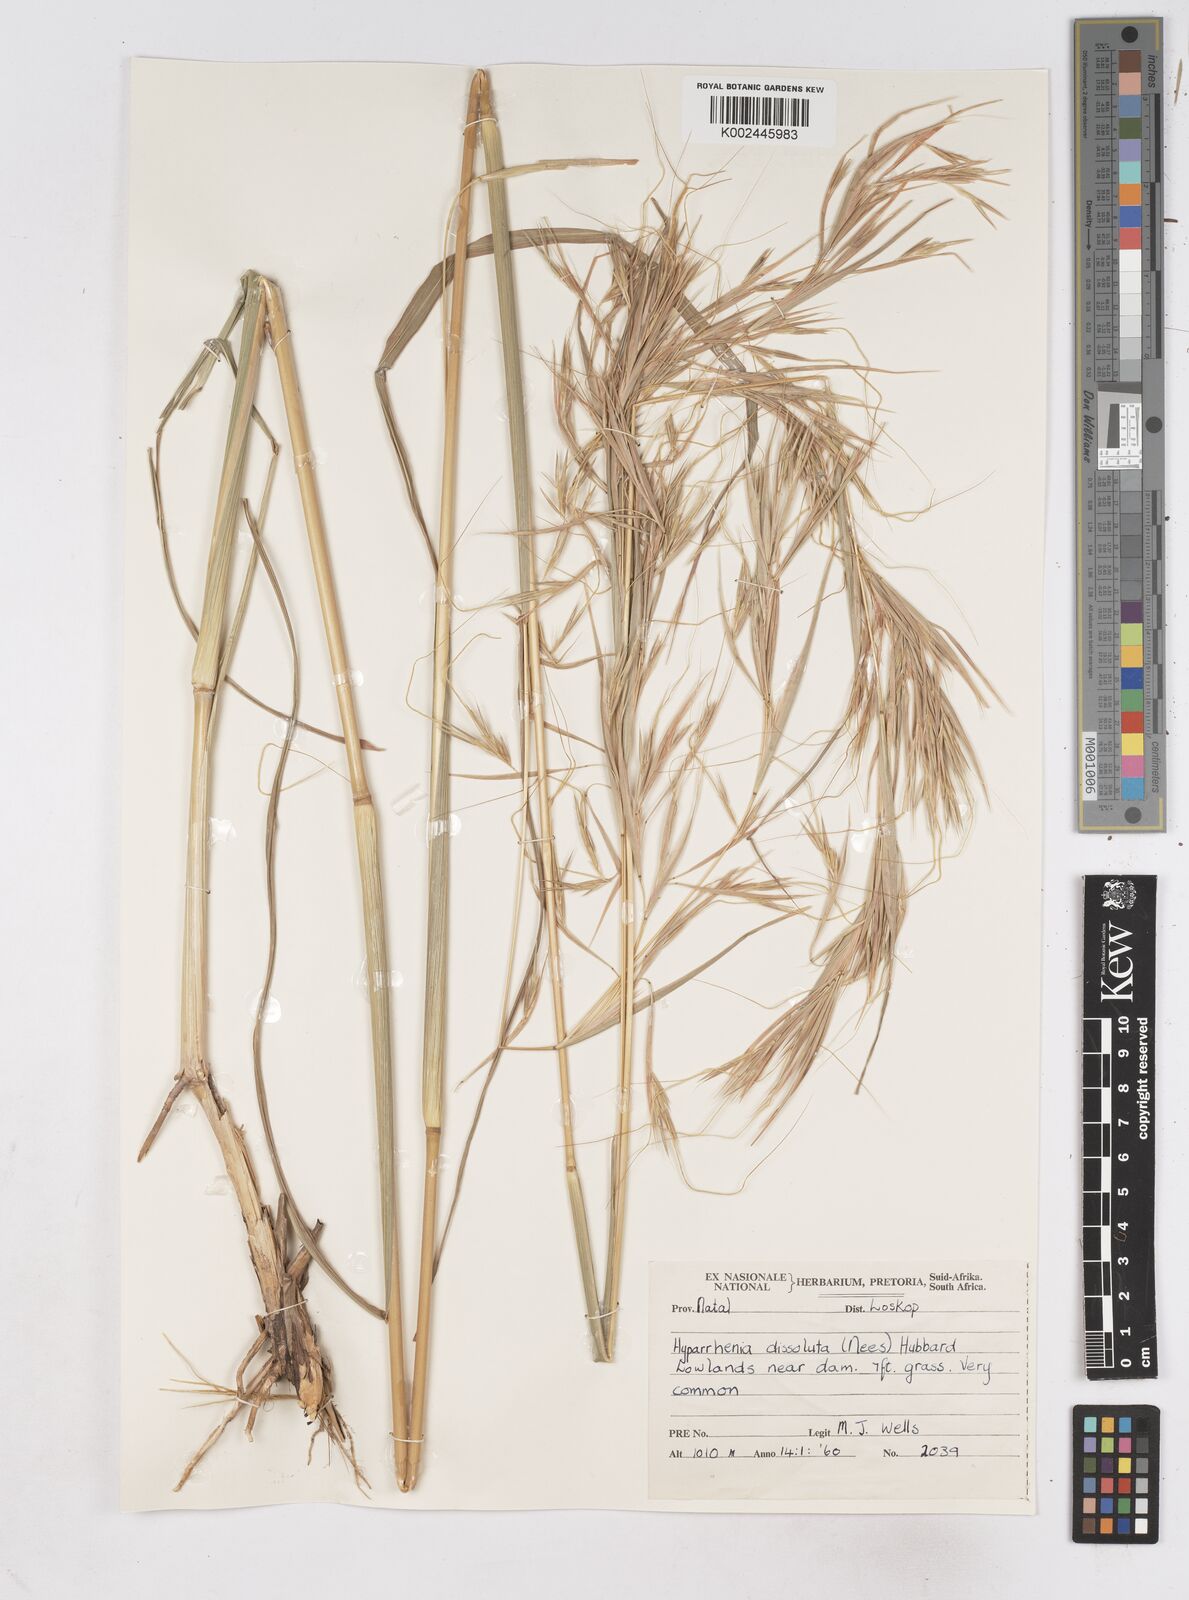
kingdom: Plantae
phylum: Tracheophyta
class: Liliopsida
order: Poales
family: Poaceae
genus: Hyperthelia
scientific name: Hyperthelia dissoluta
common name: Yellow thatching grass
